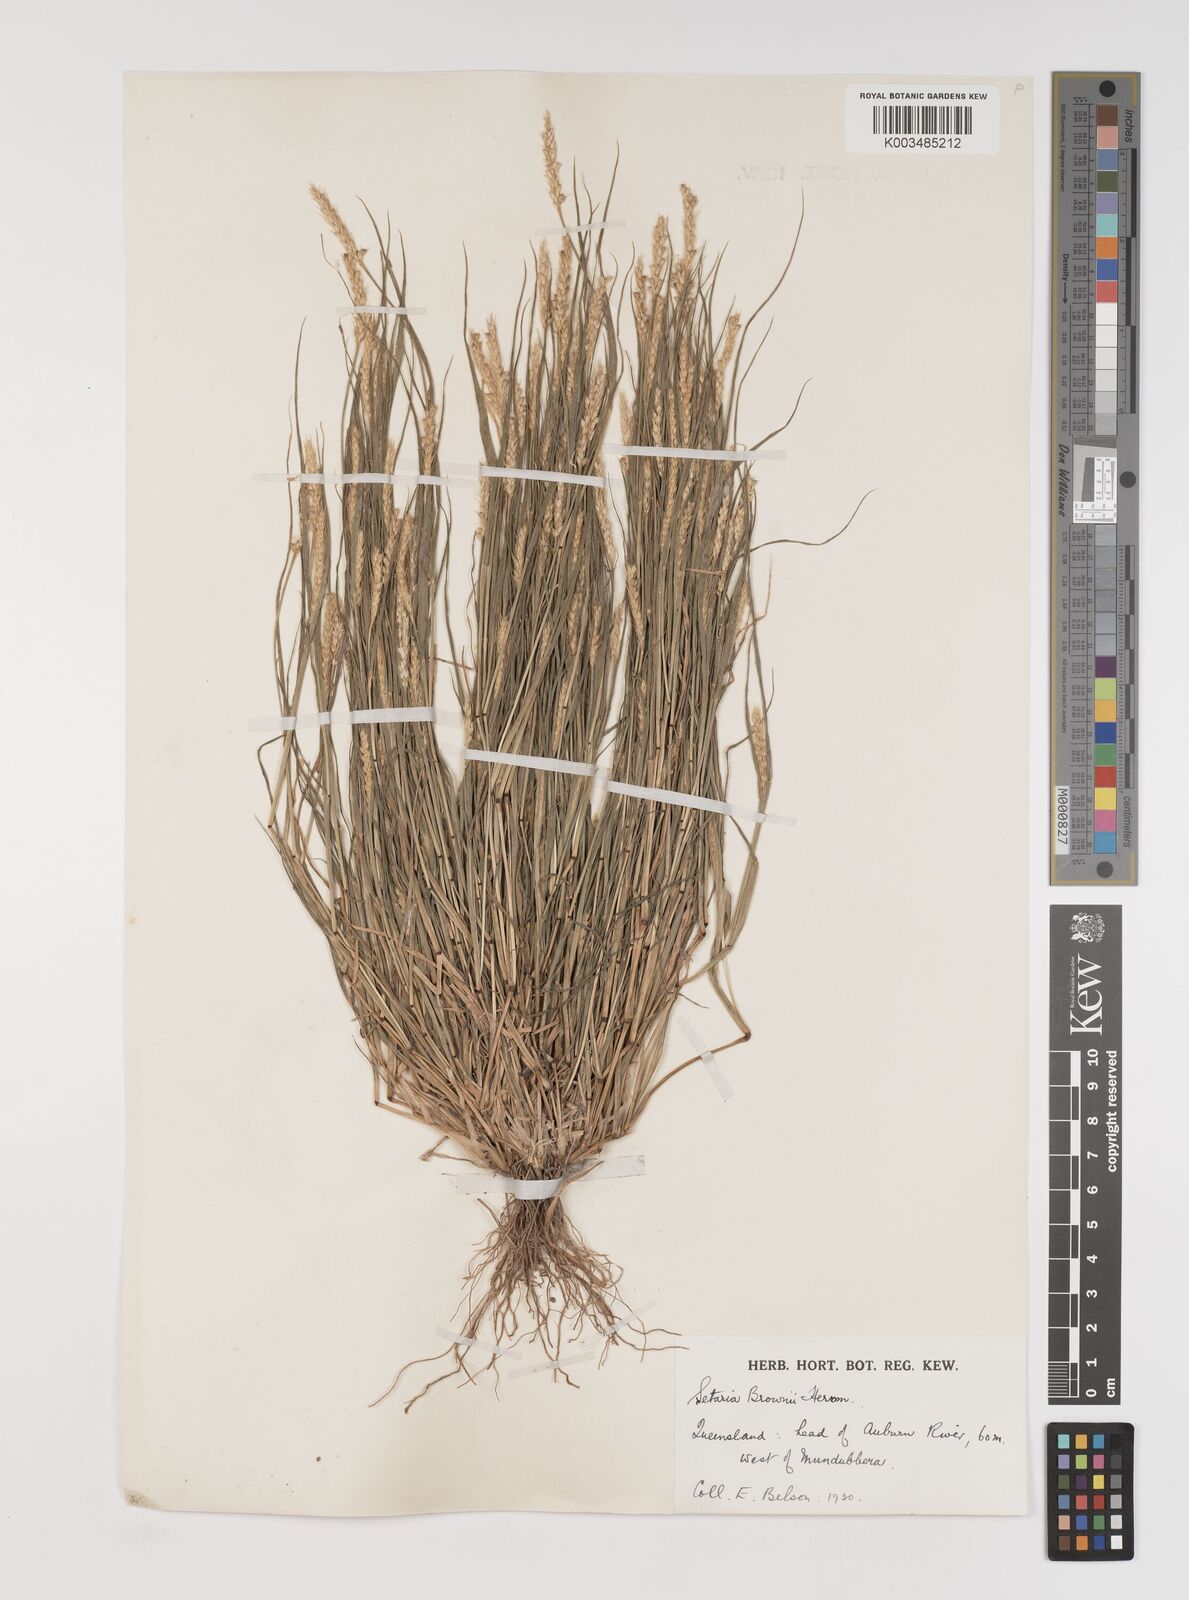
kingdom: Plantae
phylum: Tracheophyta
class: Liliopsida
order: Poales
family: Poaceae
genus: Setaria
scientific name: Setaria surgens
